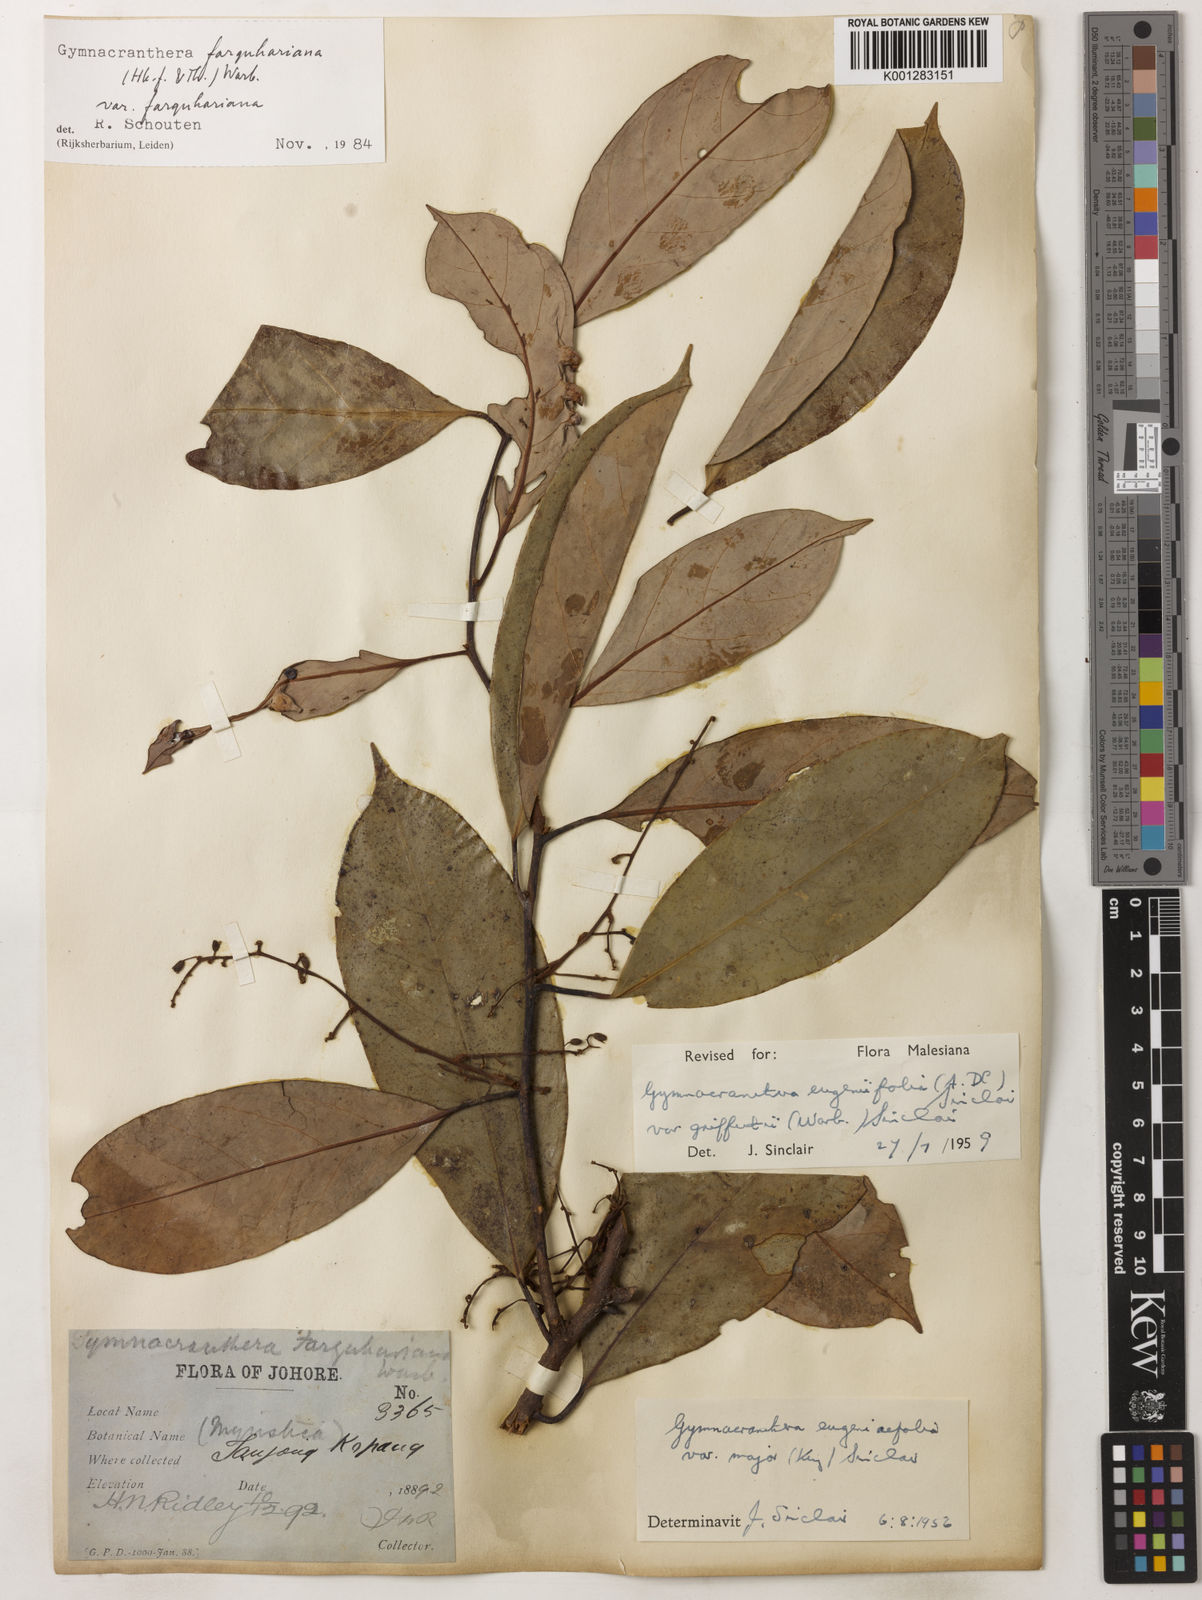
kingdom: Plantae
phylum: Tracheophyta
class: Magnoliopsida
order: Magnoliales
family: Myristicaceae
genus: Gymnacranthera
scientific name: Gymnacranthera farquhariana
